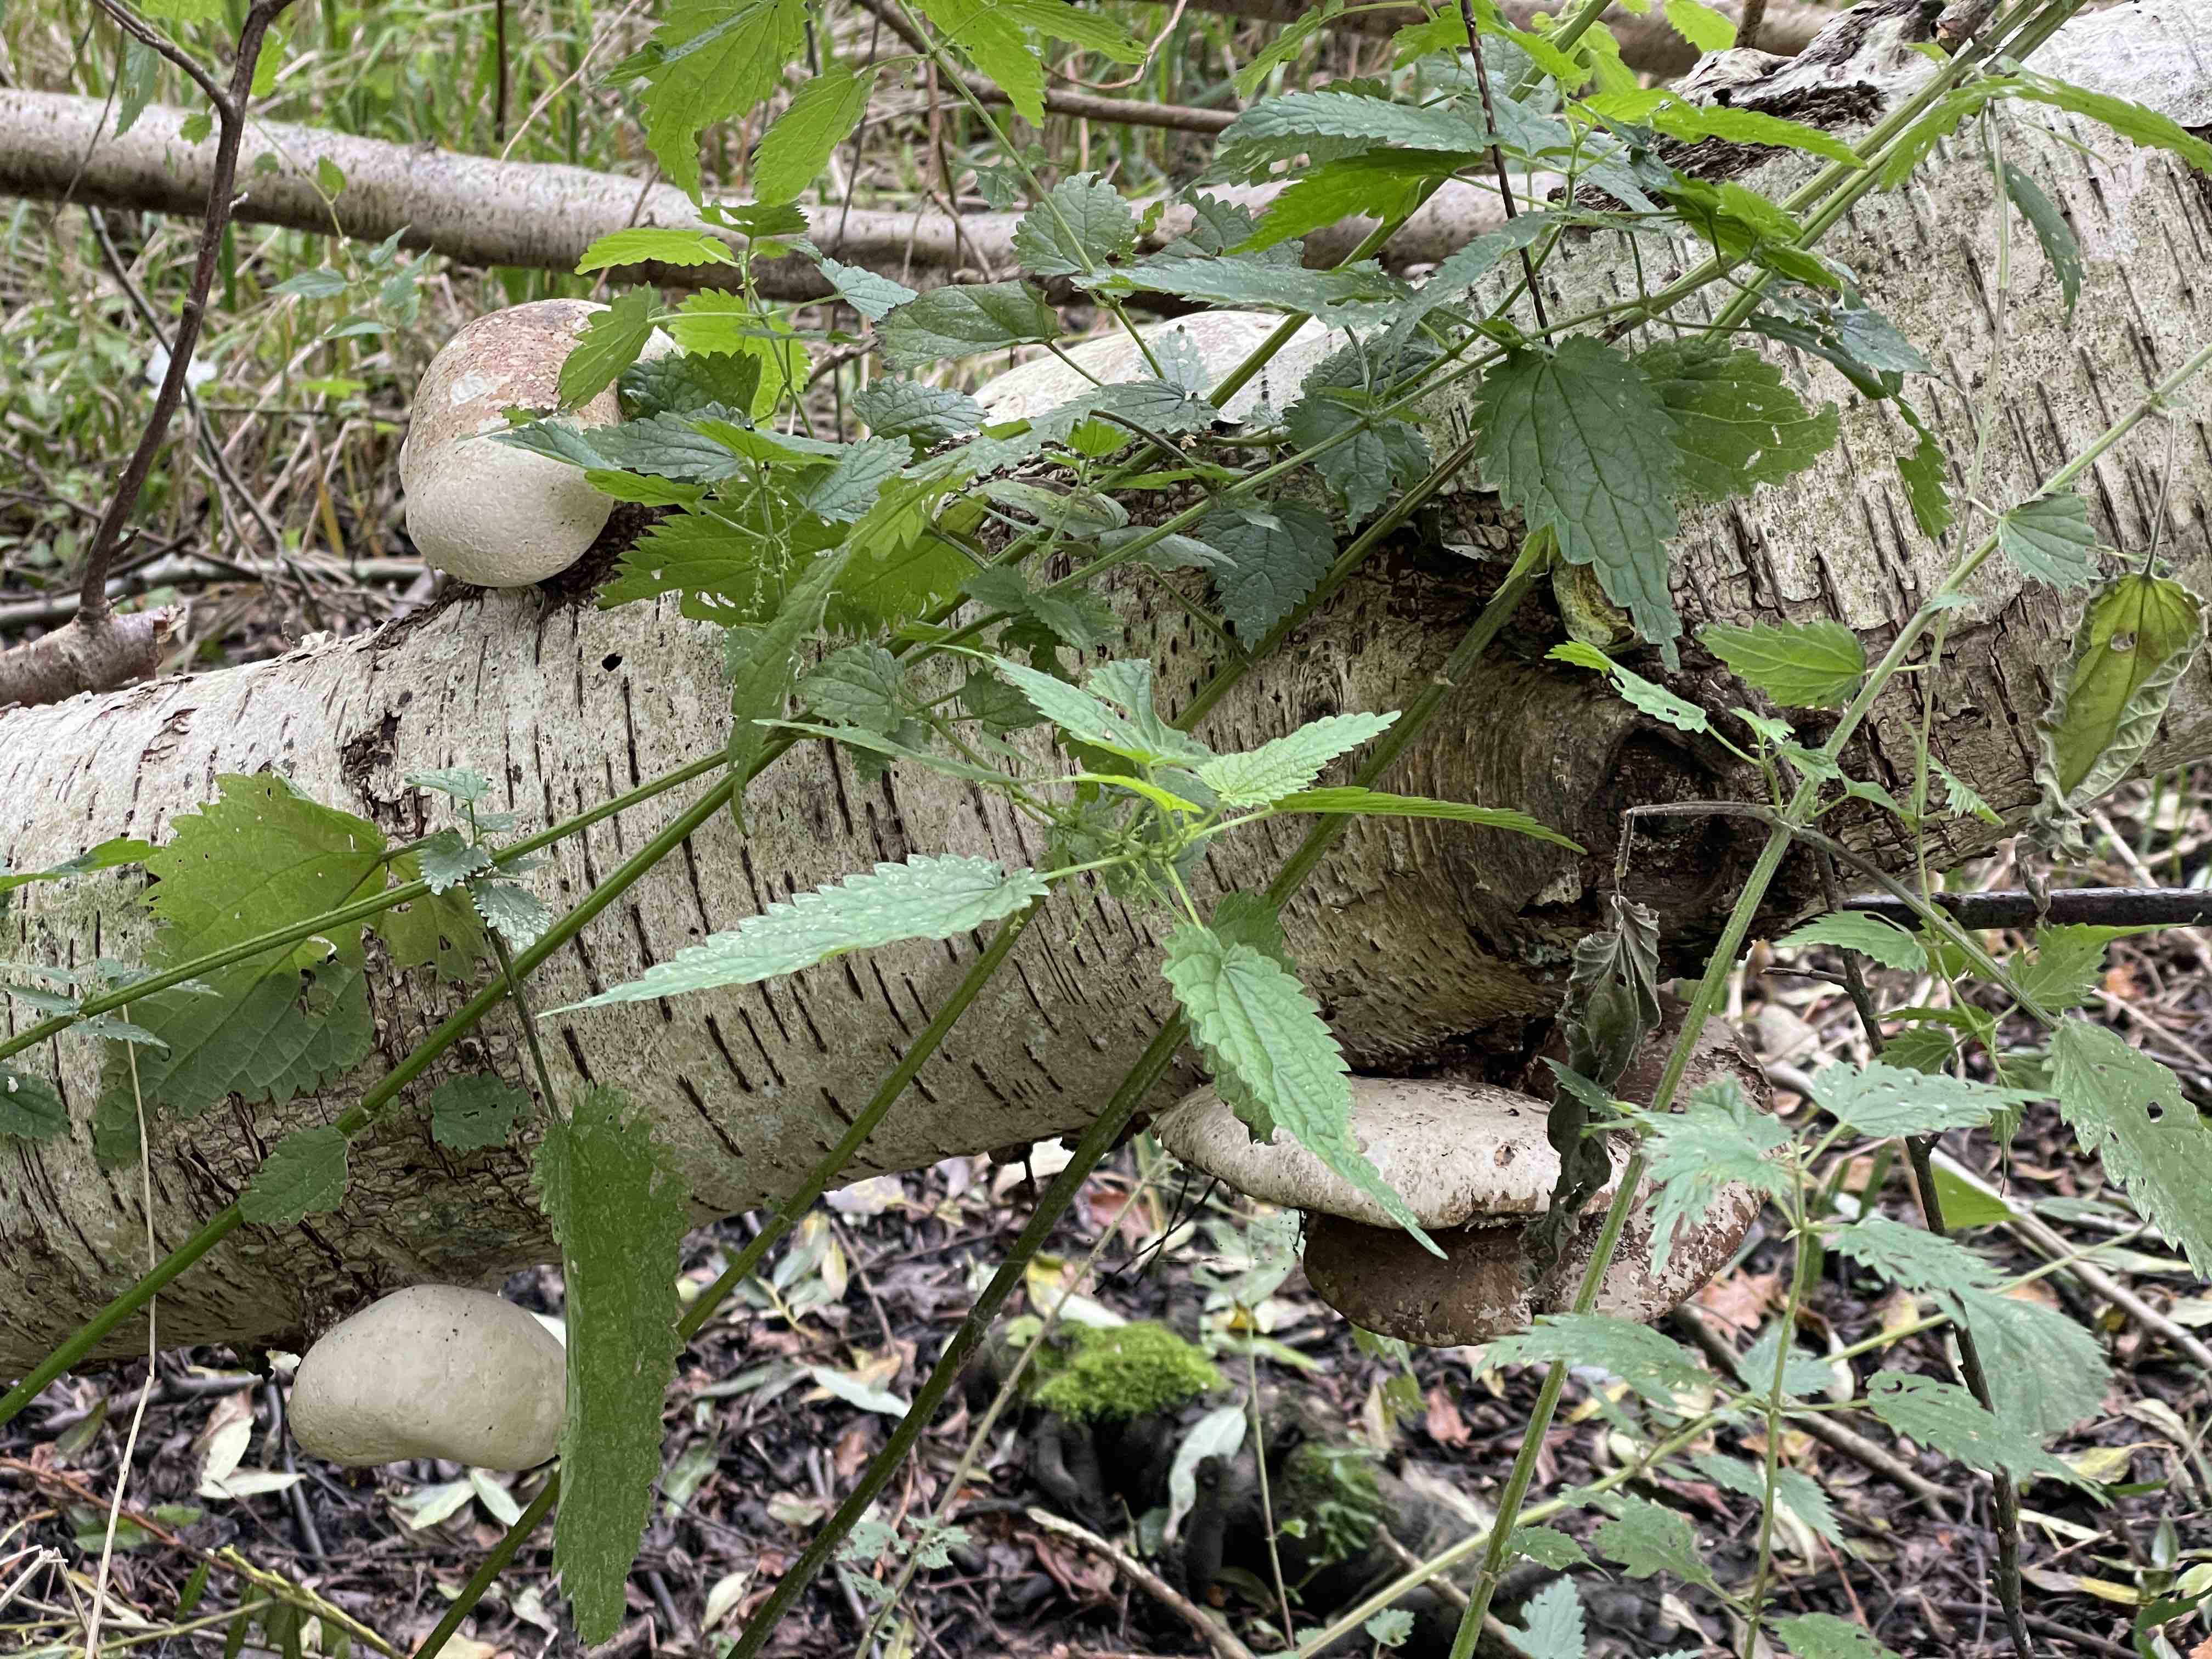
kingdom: Fungi
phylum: Basidiomycota
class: Agaricomycetes
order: Polyporales
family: Fomitopsidaceae
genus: Fomitopsis
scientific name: Fomitopsis betulina
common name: birkeporesvamp
